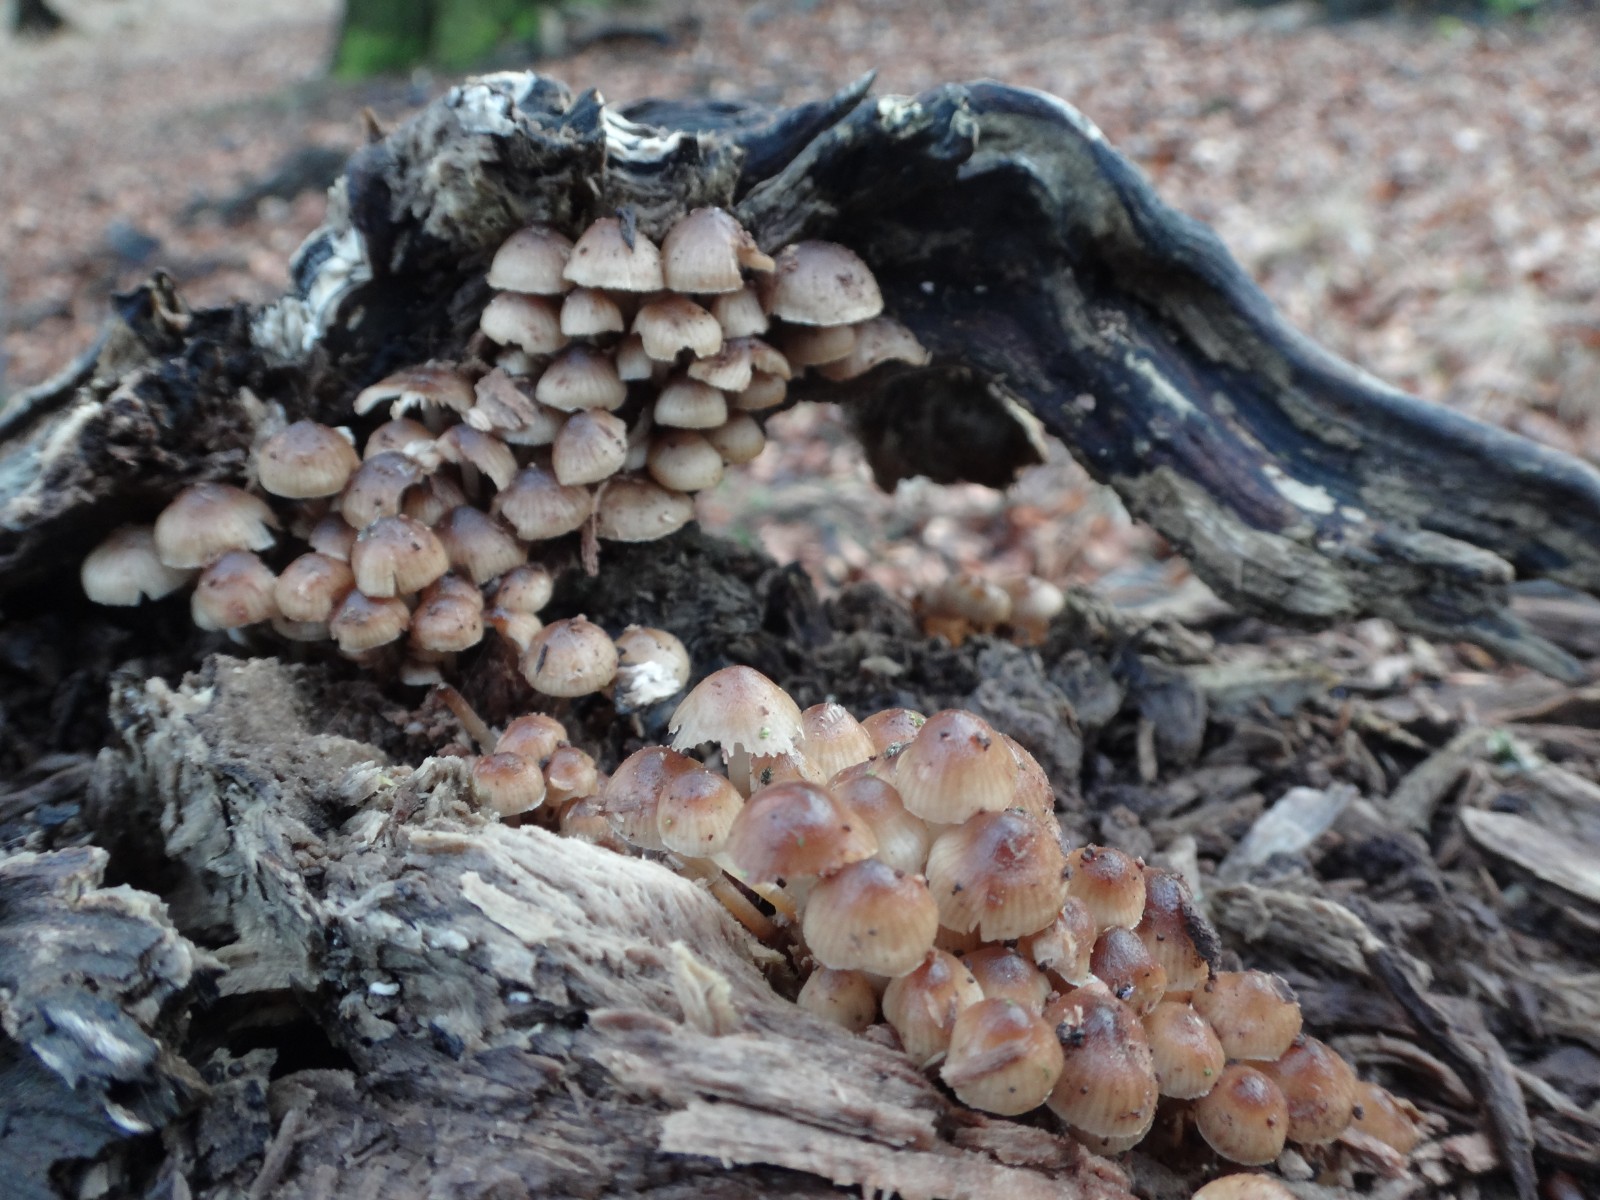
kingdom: Fungi
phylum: Basidiomycota
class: Agaricomycetes
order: Agaricales
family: Mycenaceae
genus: Mycena
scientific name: Mycena tintinnabulum
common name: vinter-huesvamp
